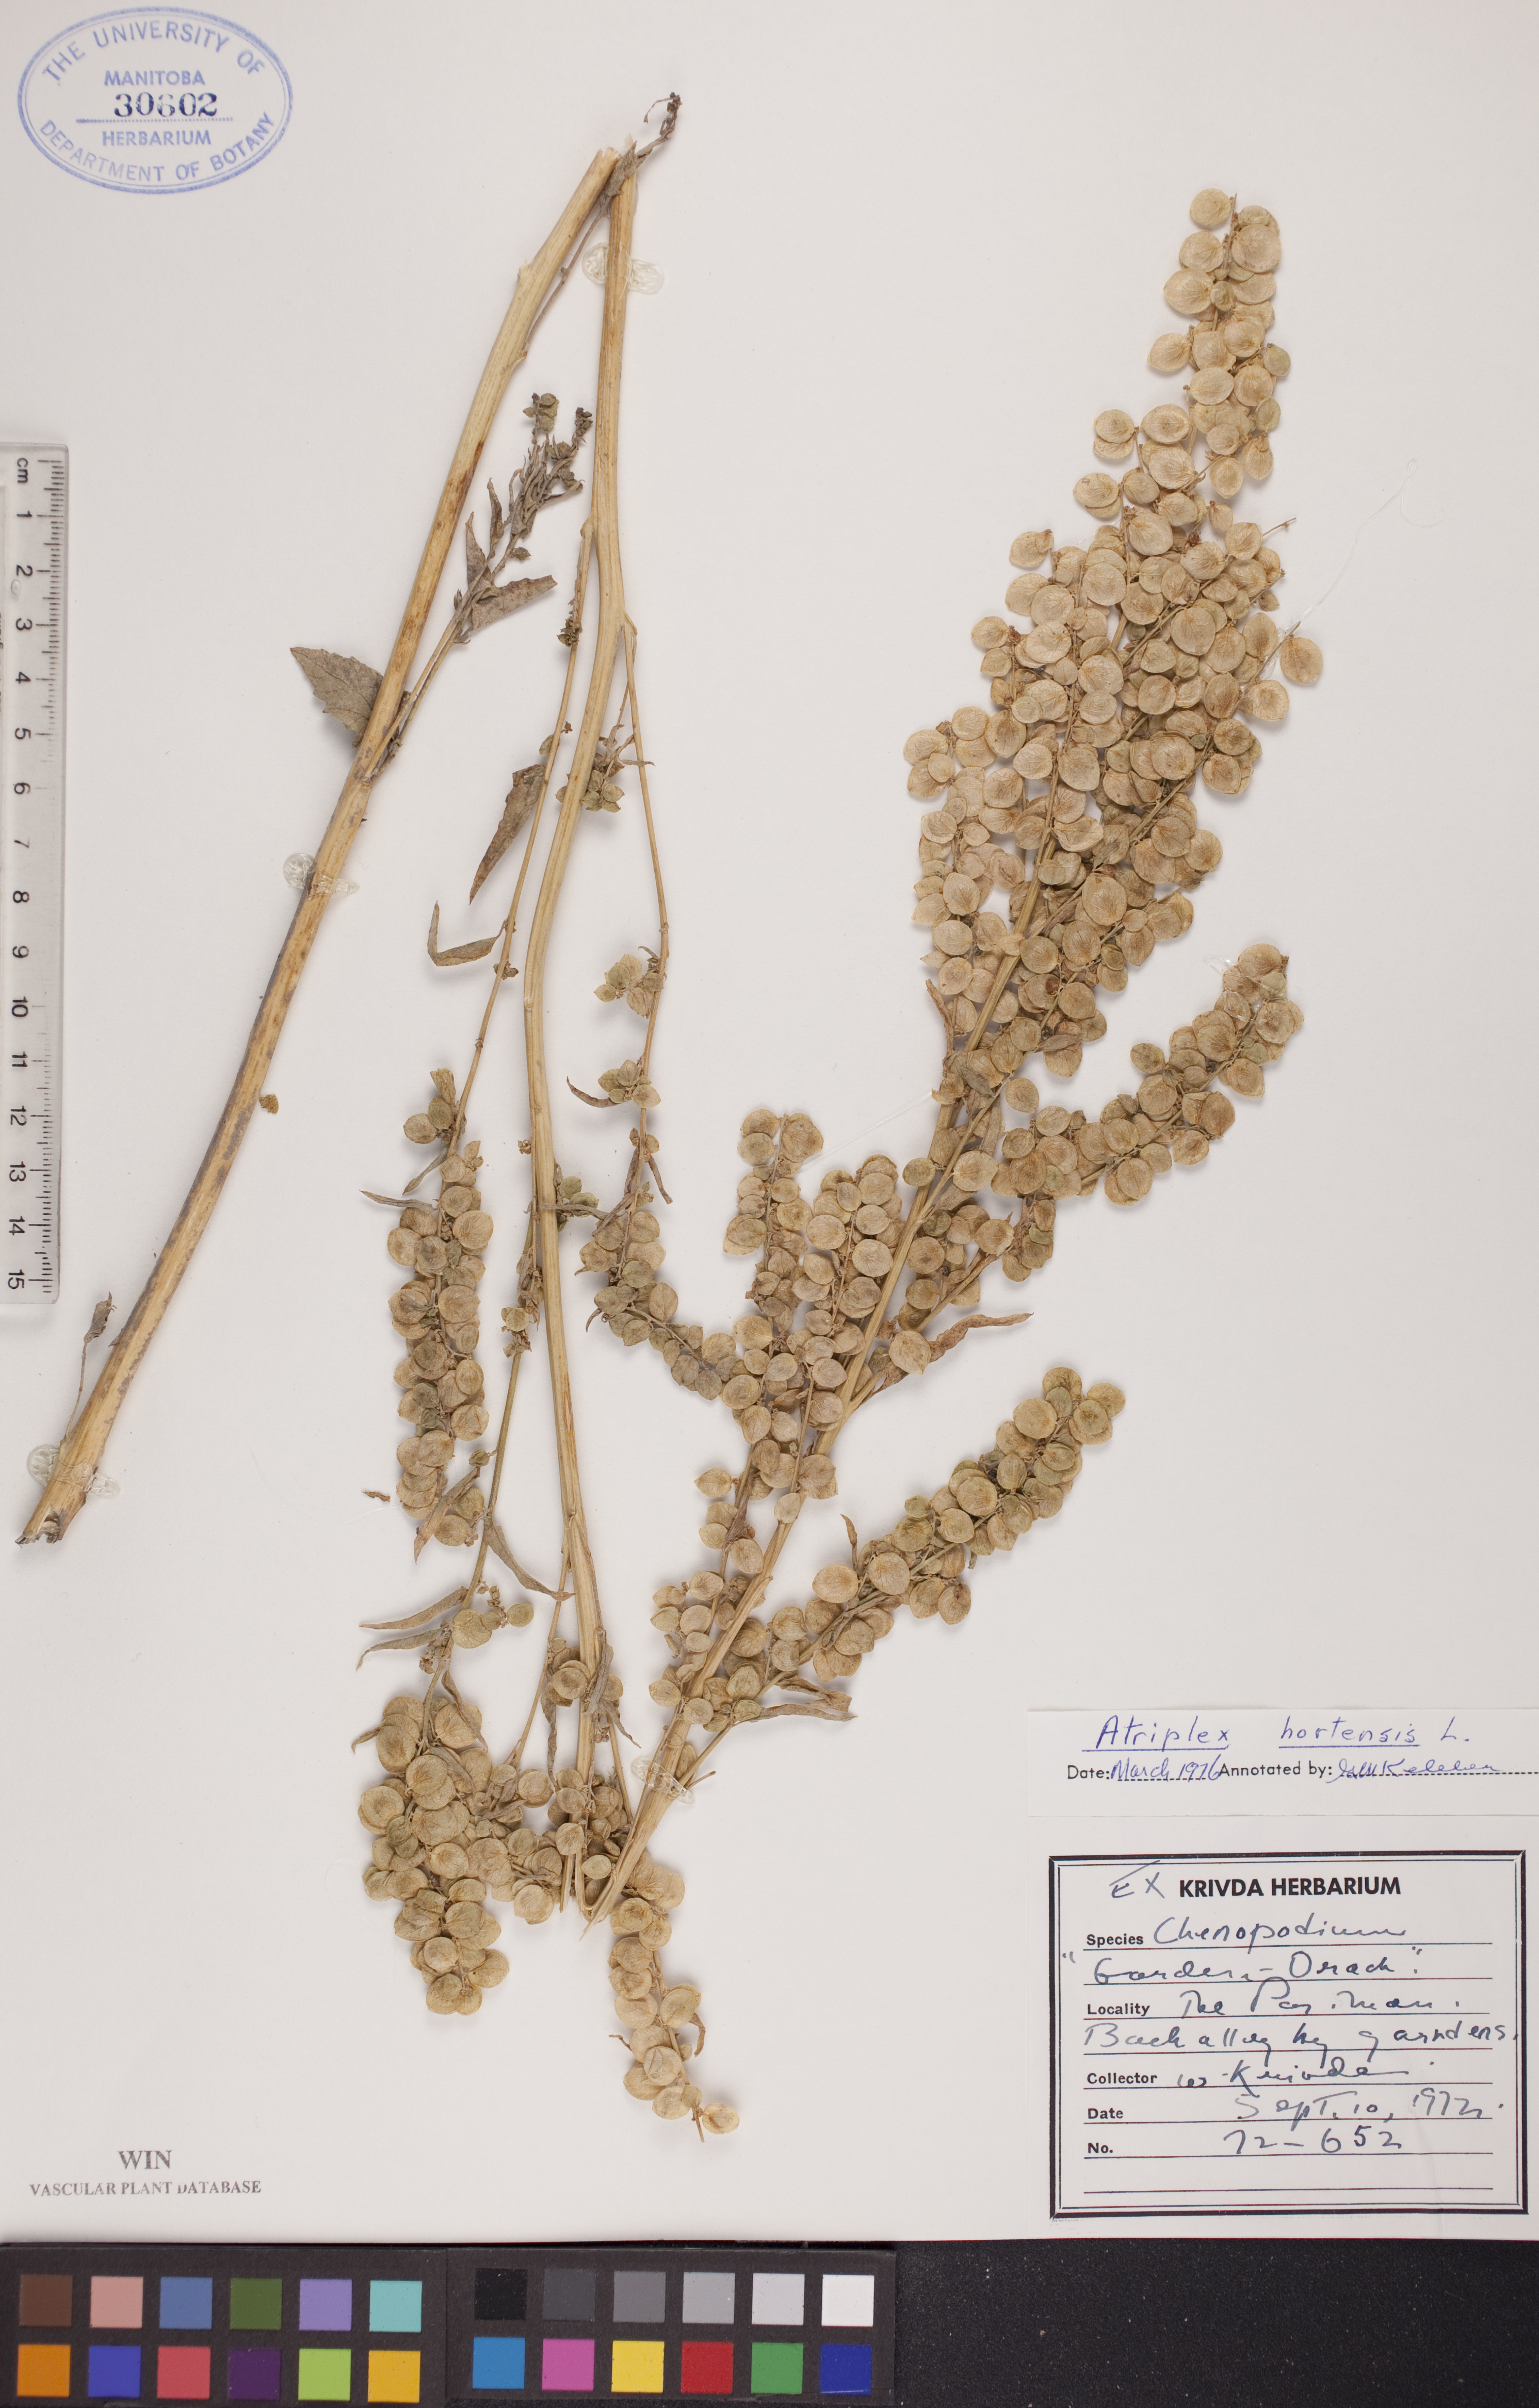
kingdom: Plantae
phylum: Tracheophyta
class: Magnoliopsida
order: Caryophyllales
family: Amaranthaceae
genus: Atriplex
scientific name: Atriplex hortensis
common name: Garden orache
